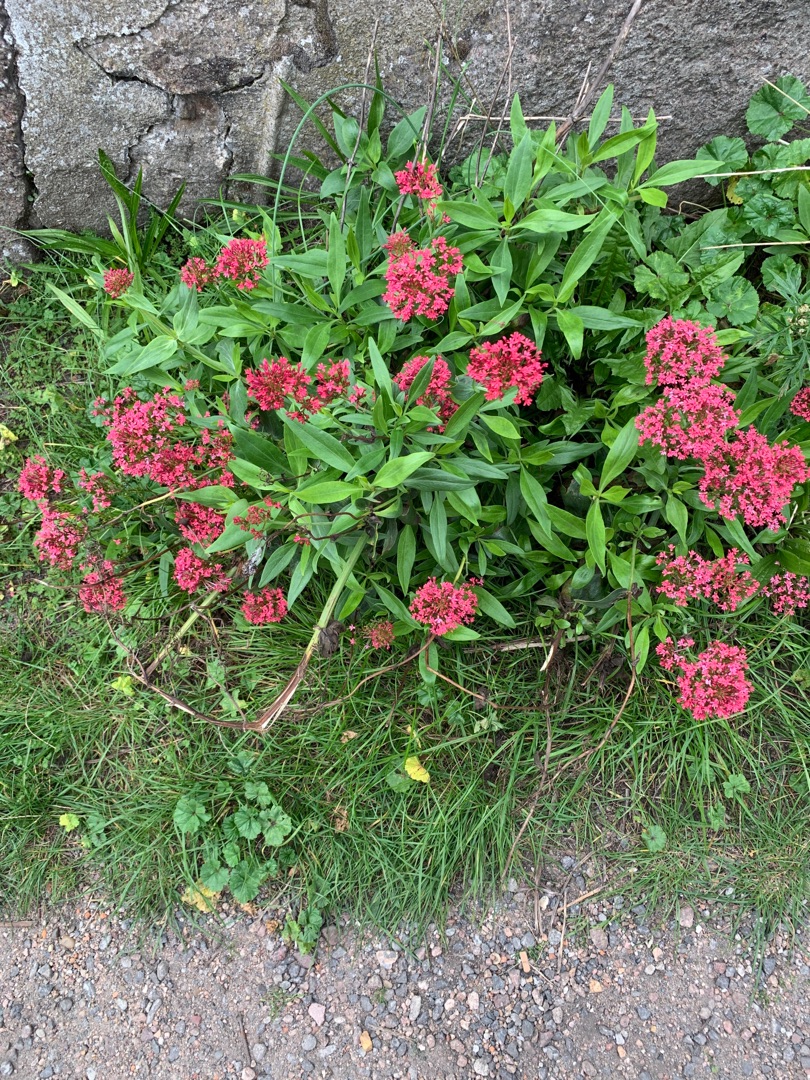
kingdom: Plantae
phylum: Tracheophyta
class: Magnoliopsida
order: Dipsacales
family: Caprifoliaceae
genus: Centranthus
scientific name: Centranthus ruber
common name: Sporebaldrian
